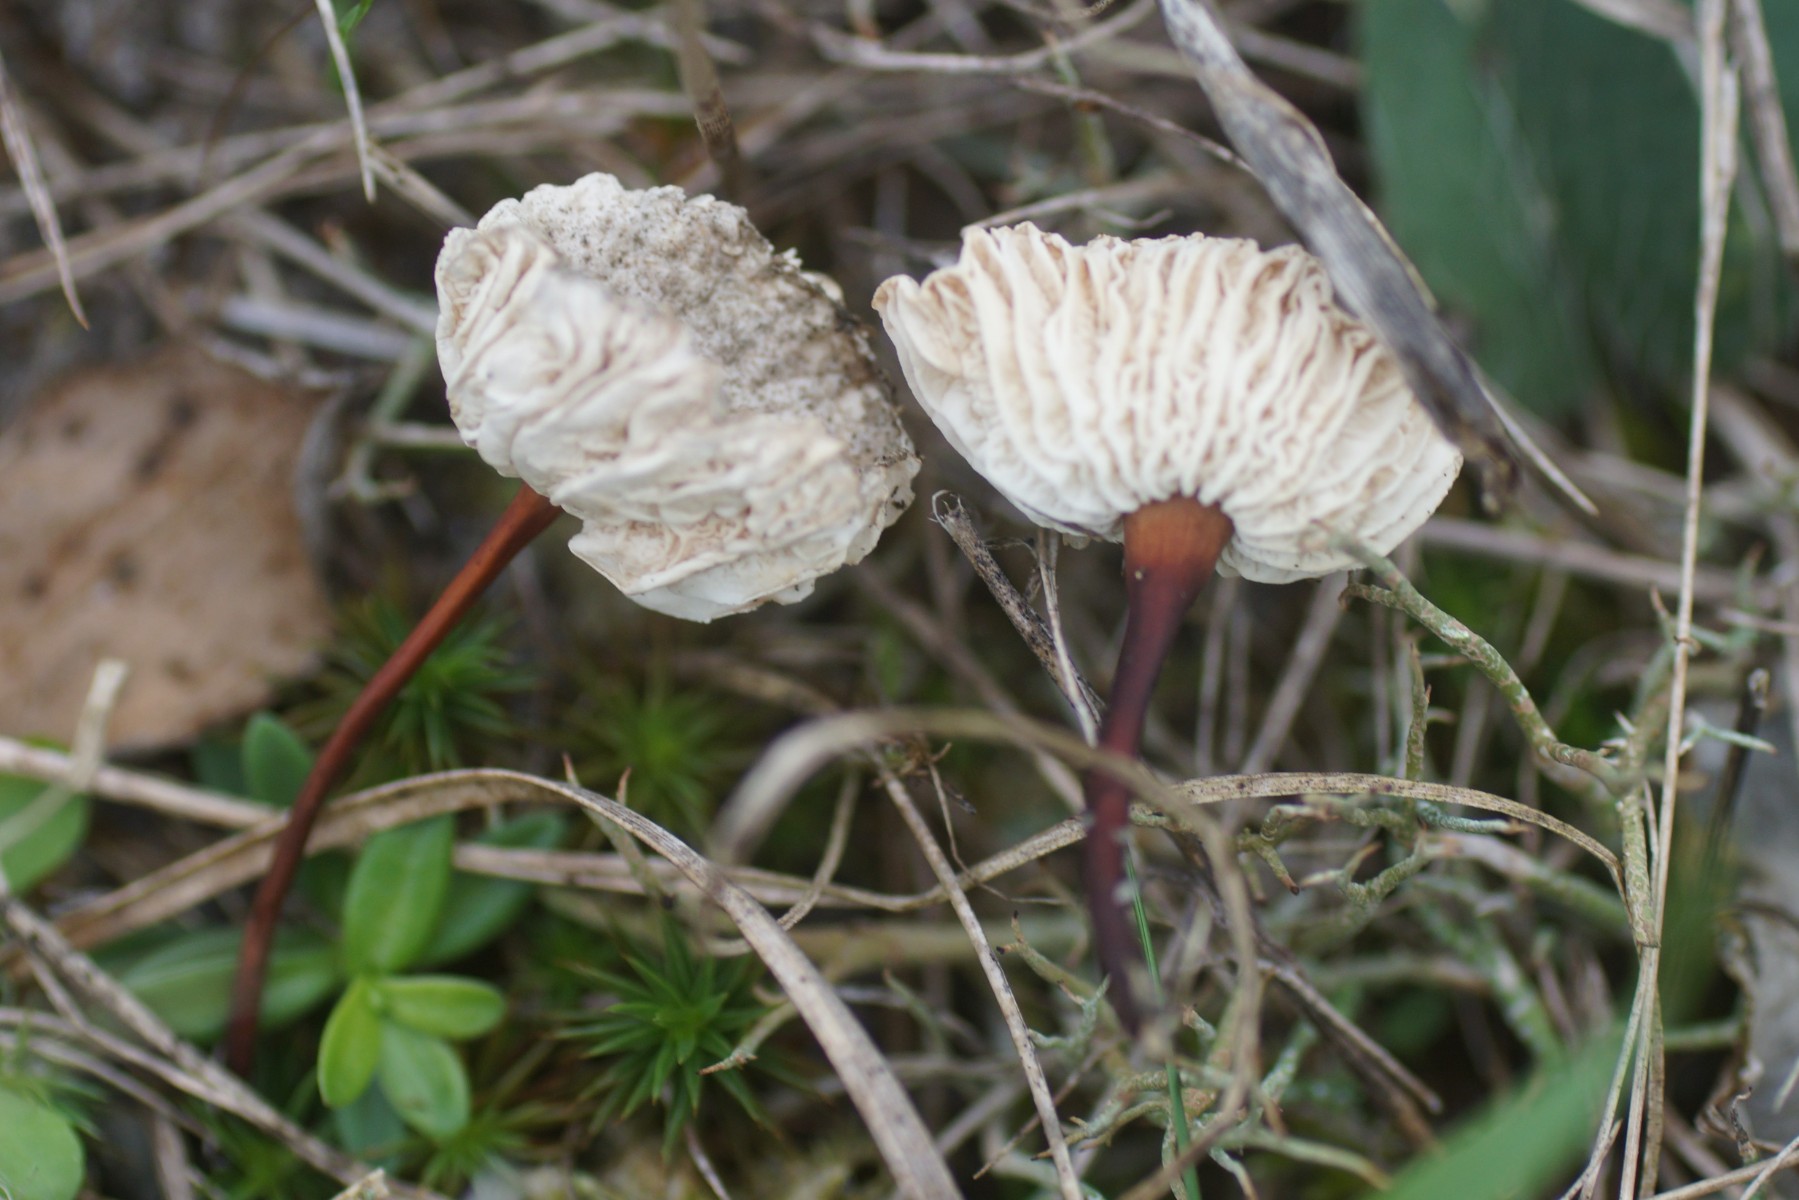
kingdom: Fungi
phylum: Basidiomycota
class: Agaricomycetes
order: Agaricales
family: Omphalotaceae
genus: Mycetinis
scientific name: Mycetinis scorodonius
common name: lille løghat
